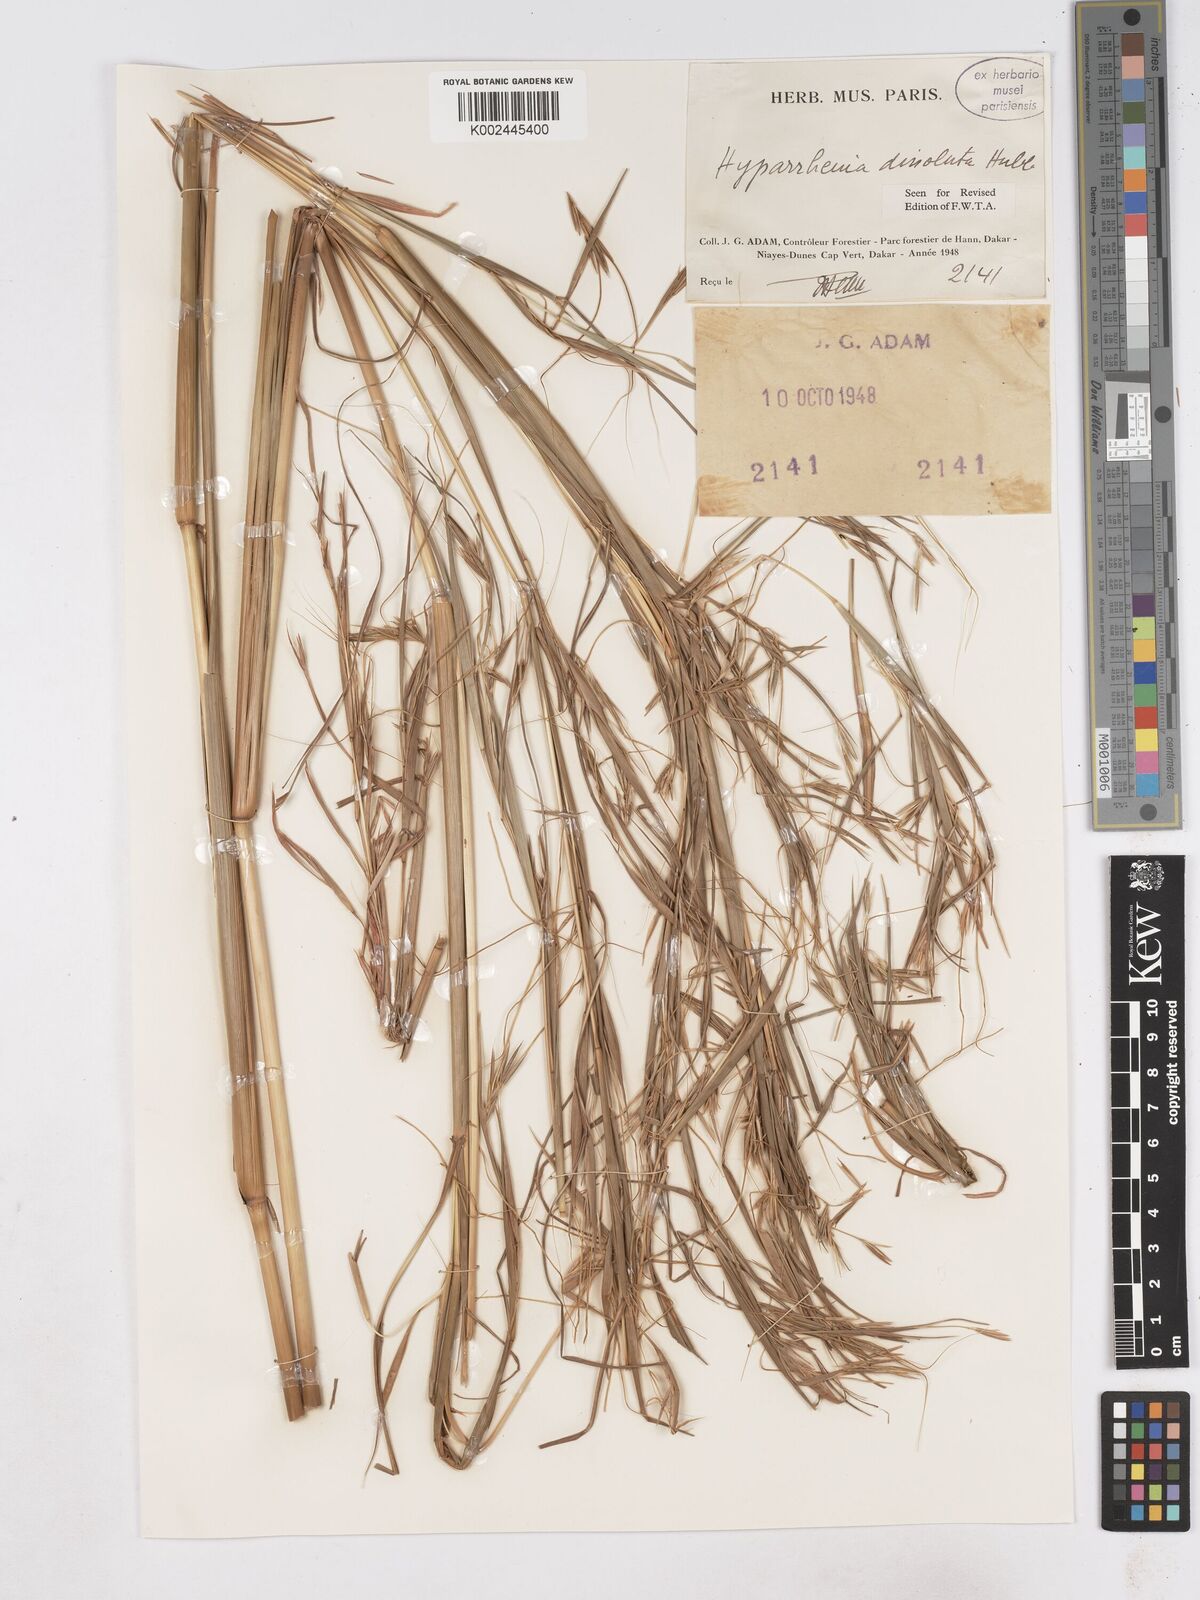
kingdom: Plantae
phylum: Tracheophyta
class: Liliopsida
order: Poales
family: Poaceae
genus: Hyperthelia
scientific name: Hyperthelia dissoluta
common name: Yellow thatching grass
